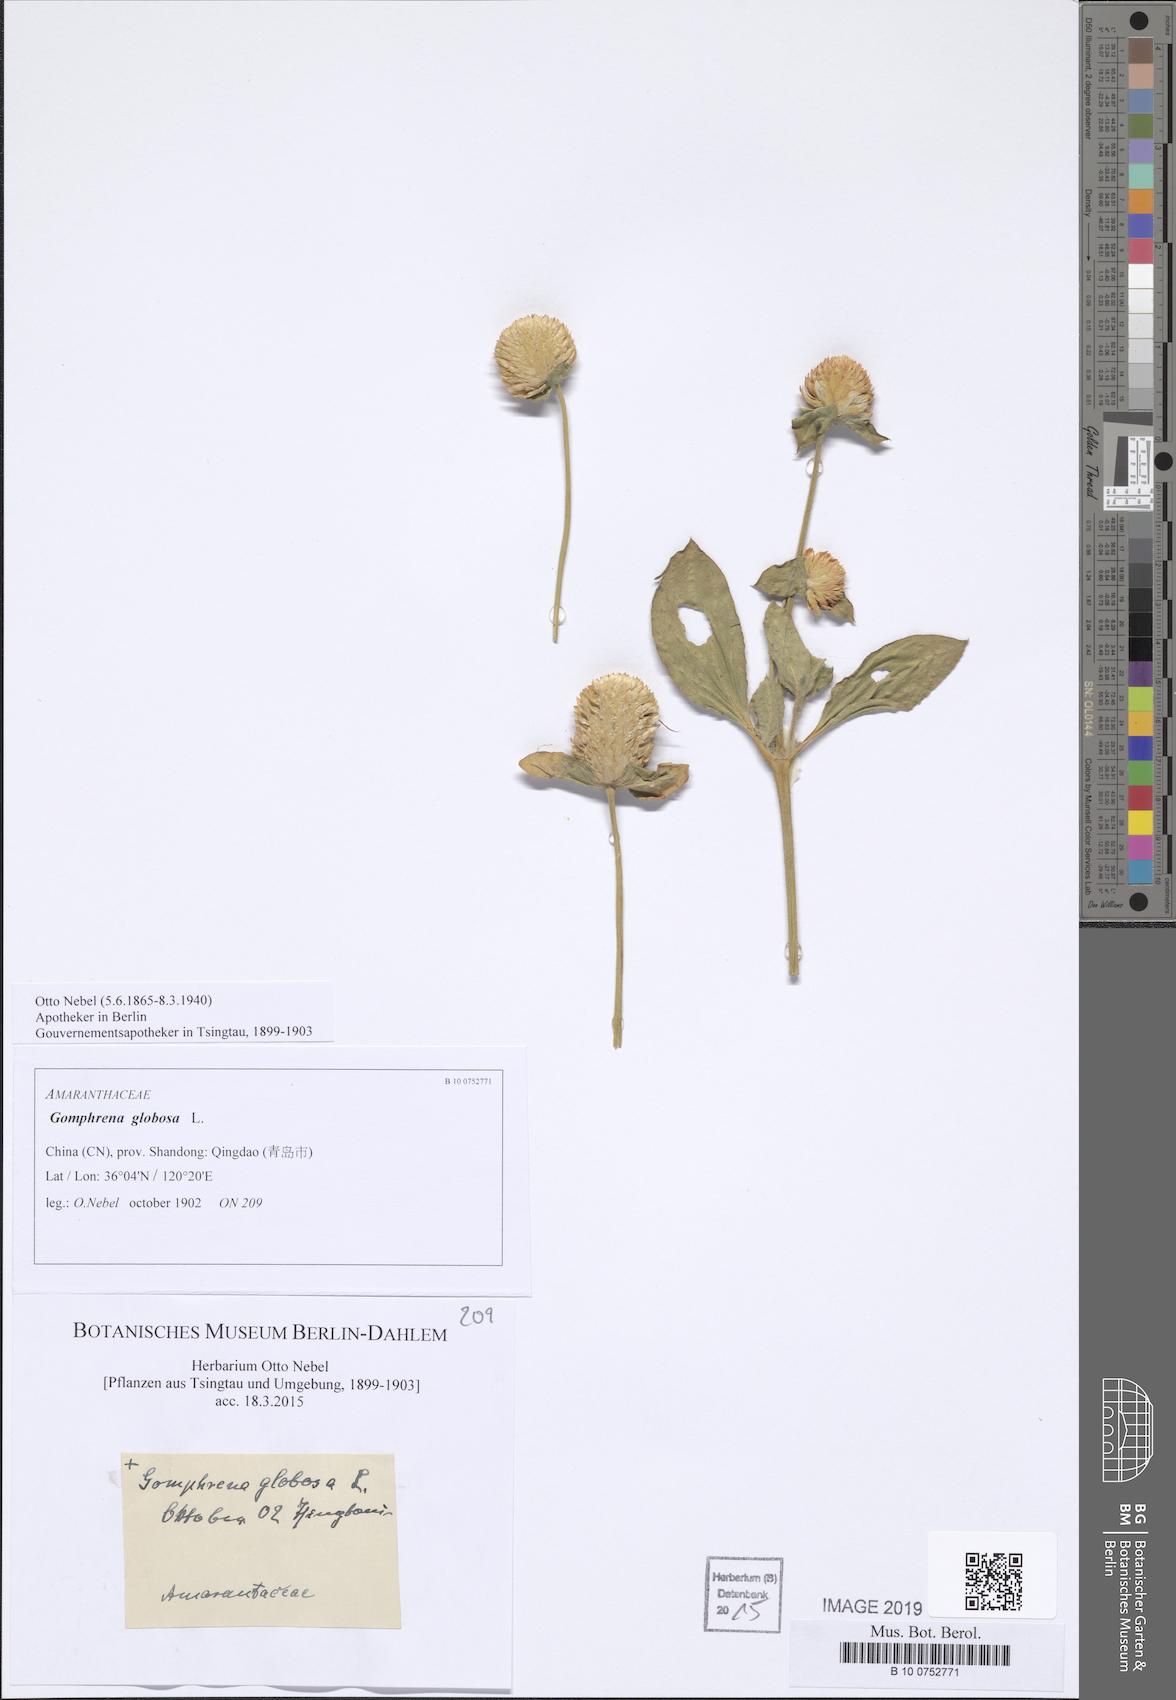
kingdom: Plantae
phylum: Tracheophyta
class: Magnoliopsida
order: Caryophyllales
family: Amaranthaceae
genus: Gomphrena
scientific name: Gomphrena globosa
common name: Common globe amaranth
